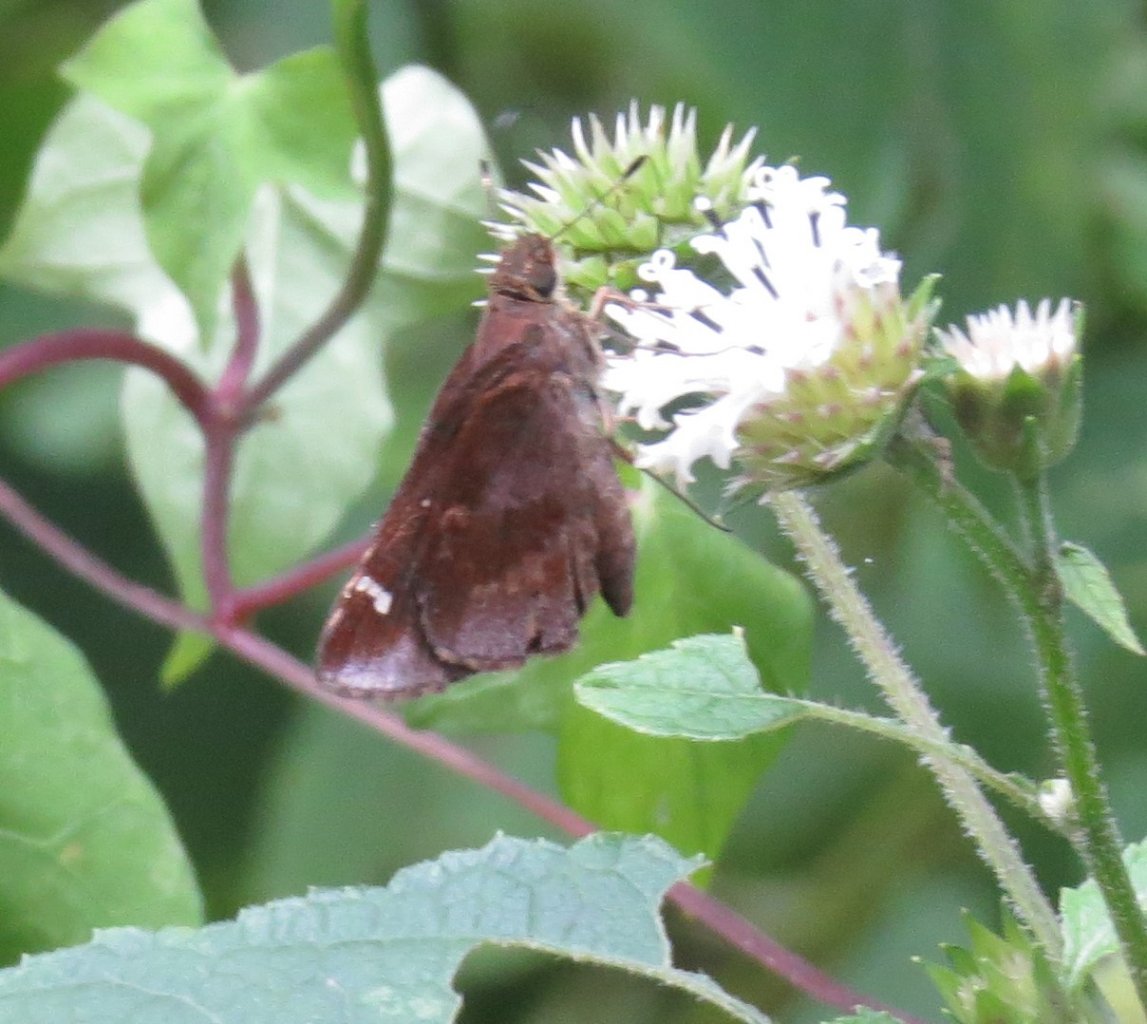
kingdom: Animalia
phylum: Arthropoda
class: Insecta
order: Lepidoptera
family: Hesperiidae
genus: Lerema
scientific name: Lerema accius
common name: Clouded Skipper
